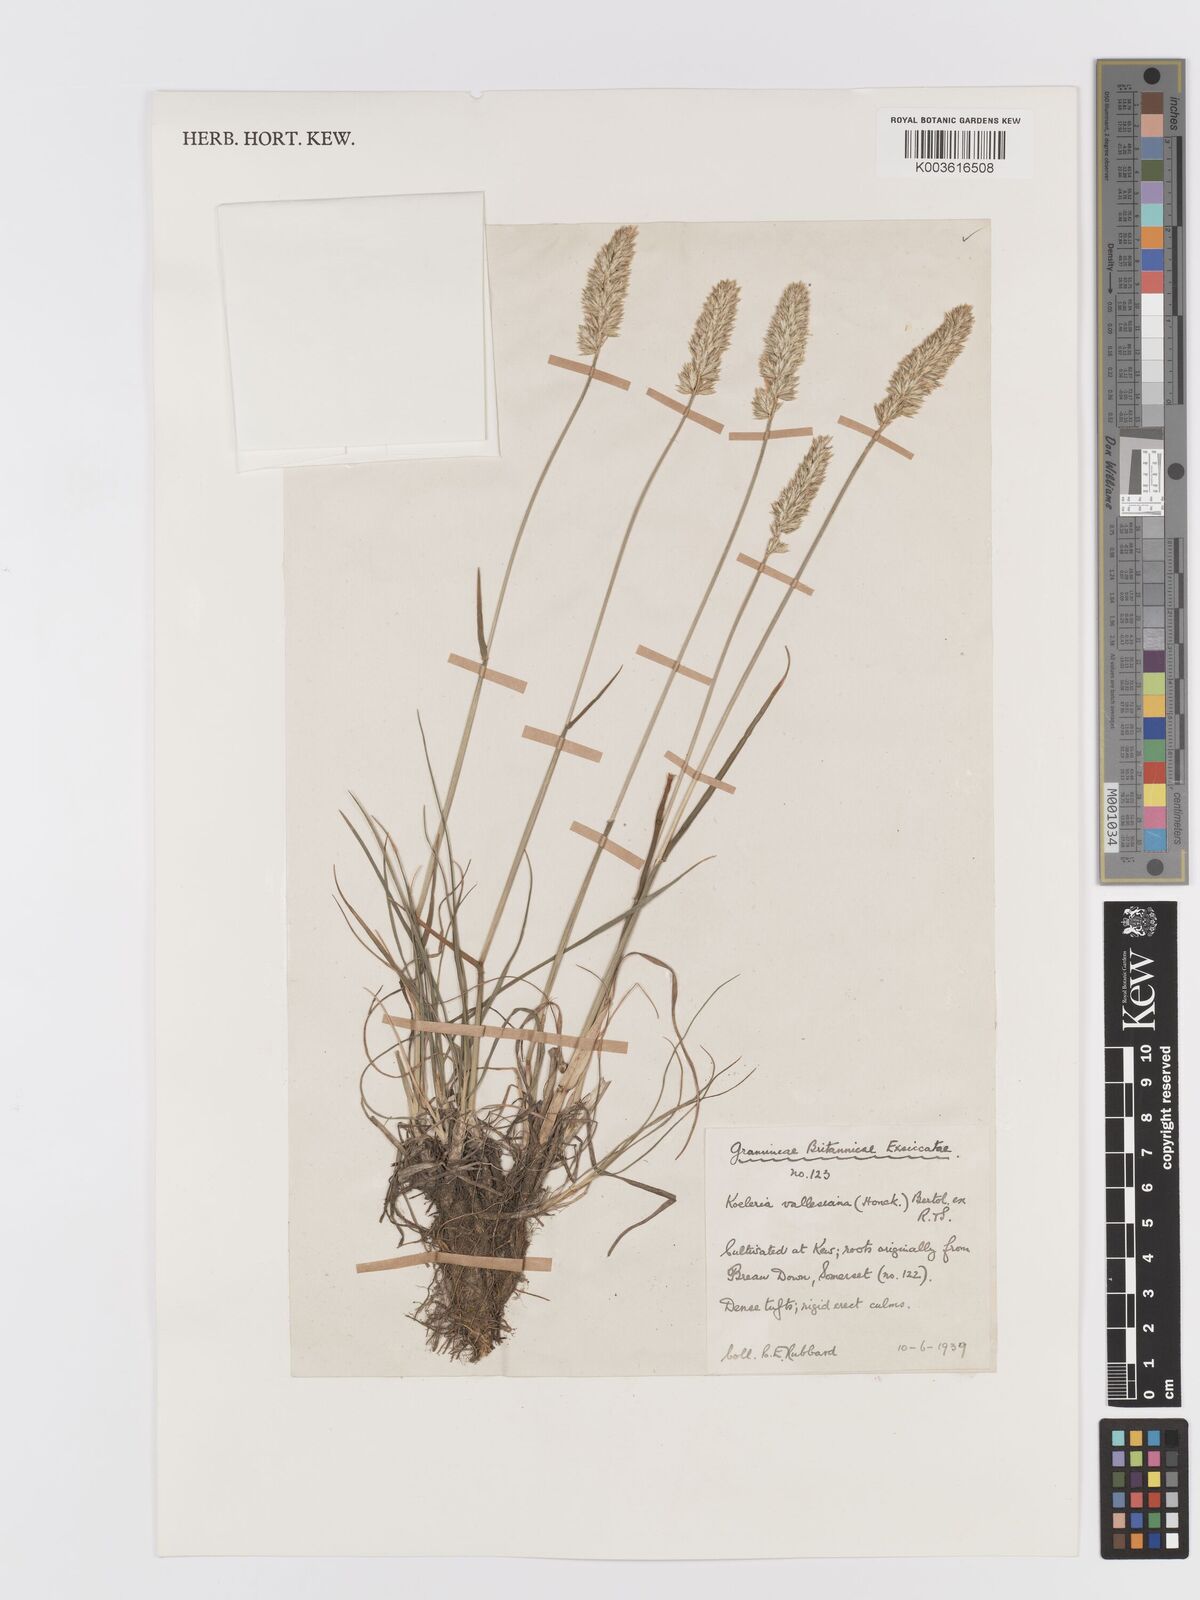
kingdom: Plantae
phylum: Tracheophyta
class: Liliopsida
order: Poales
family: Poaceae
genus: Koeleria
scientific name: Koeleria vallesiana
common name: Somerset hair-grass
